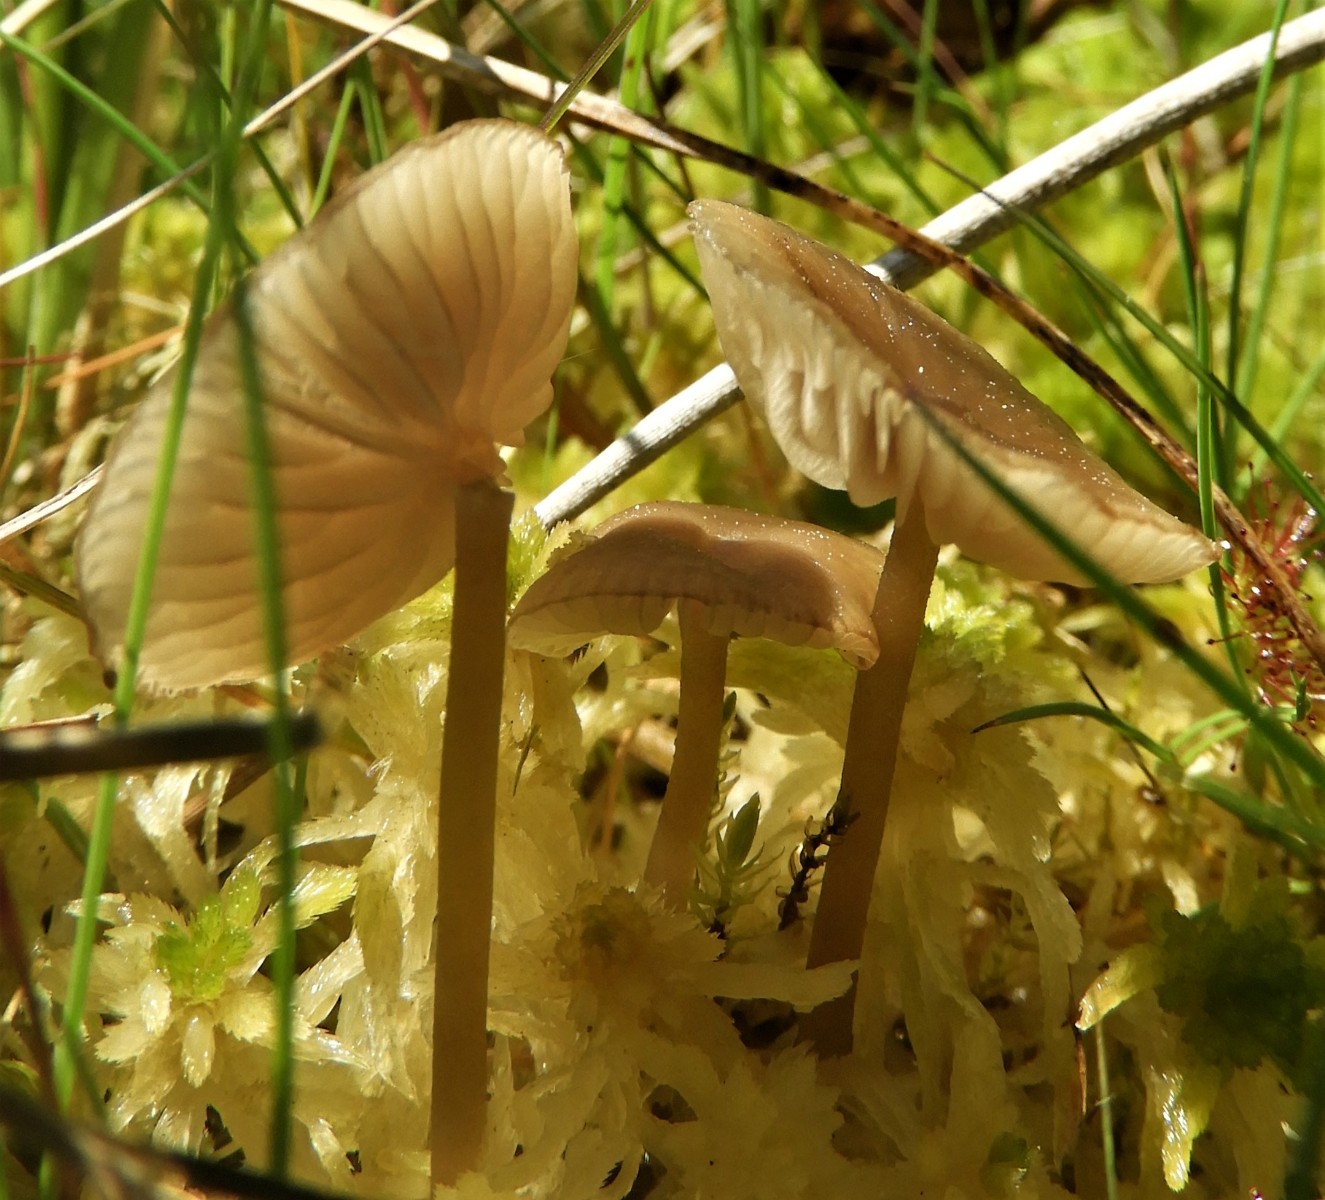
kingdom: Fungi
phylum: Basidiomycota
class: Agaricomycetes
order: Agaricales
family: Lyophyllaceae
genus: Sphagnurus
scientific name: Sphagnurus paluster
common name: tørvemos-gråblad
